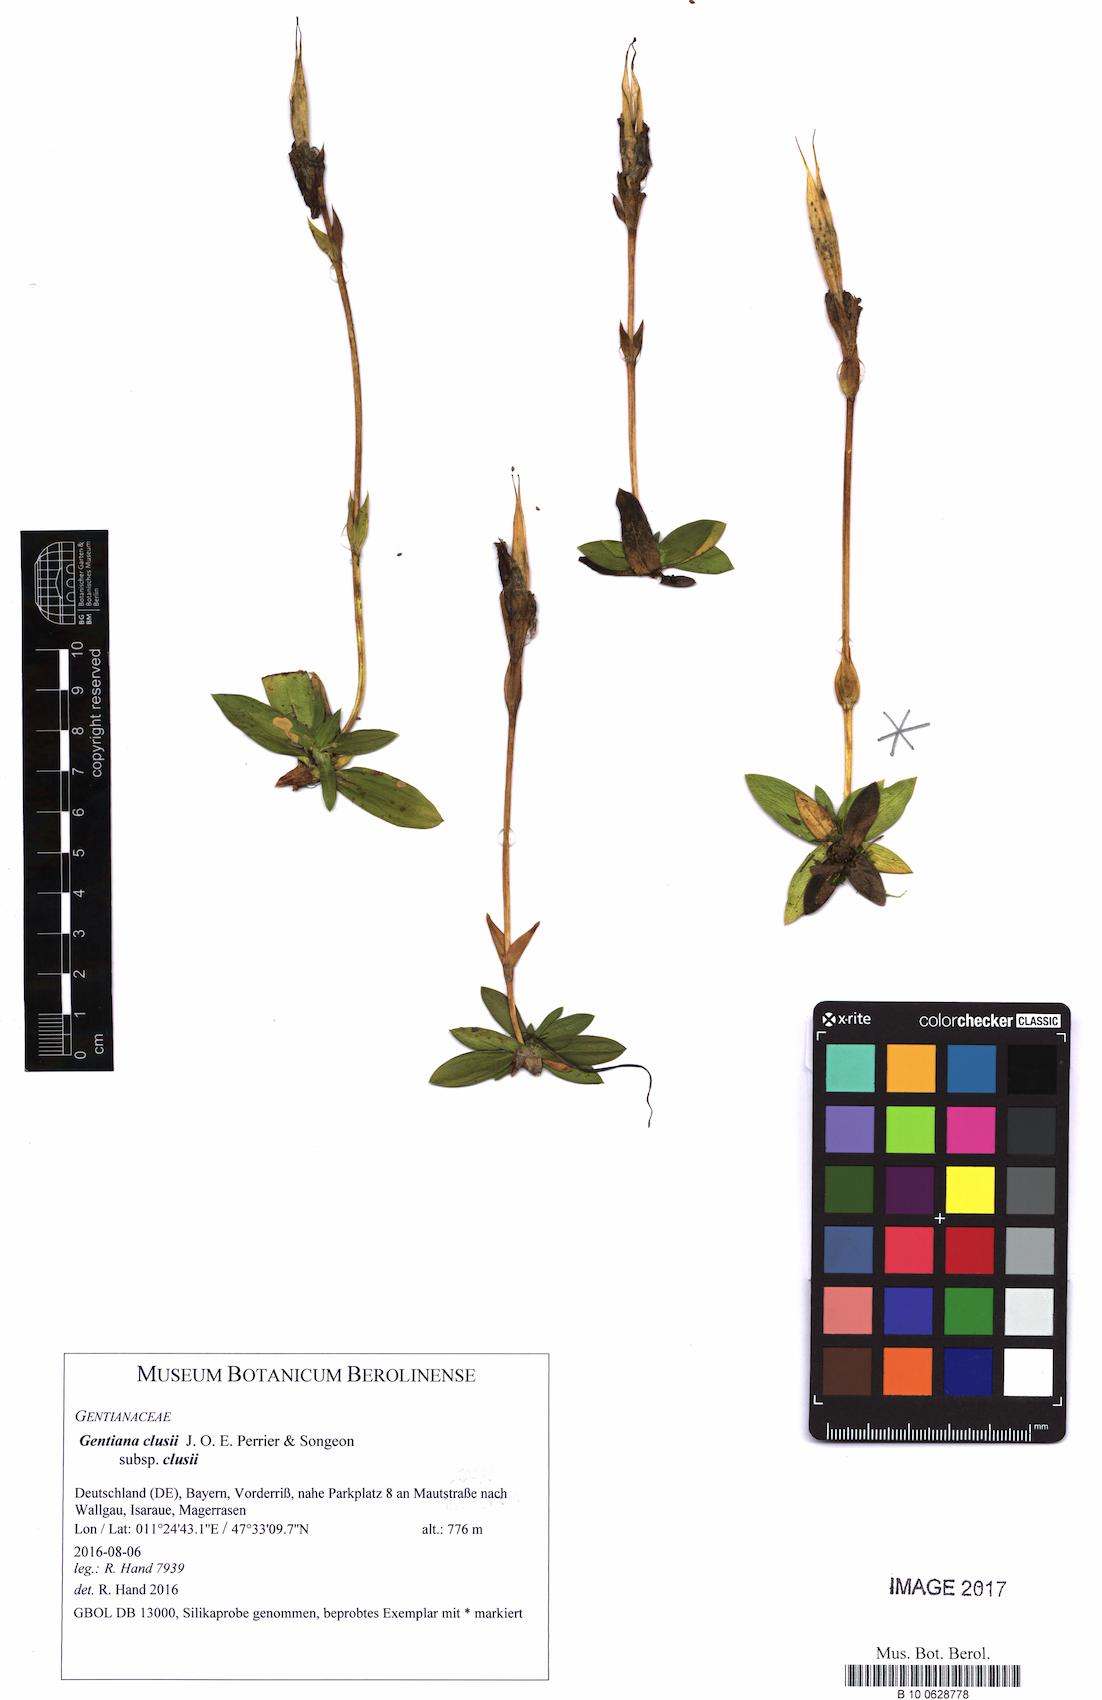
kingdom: Plantae
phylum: Tracheophyta
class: Magnoliopsida
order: Gentianales
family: Gentianaceae
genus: Gentiana
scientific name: Gentiana clusii
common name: Trumpet gentian
